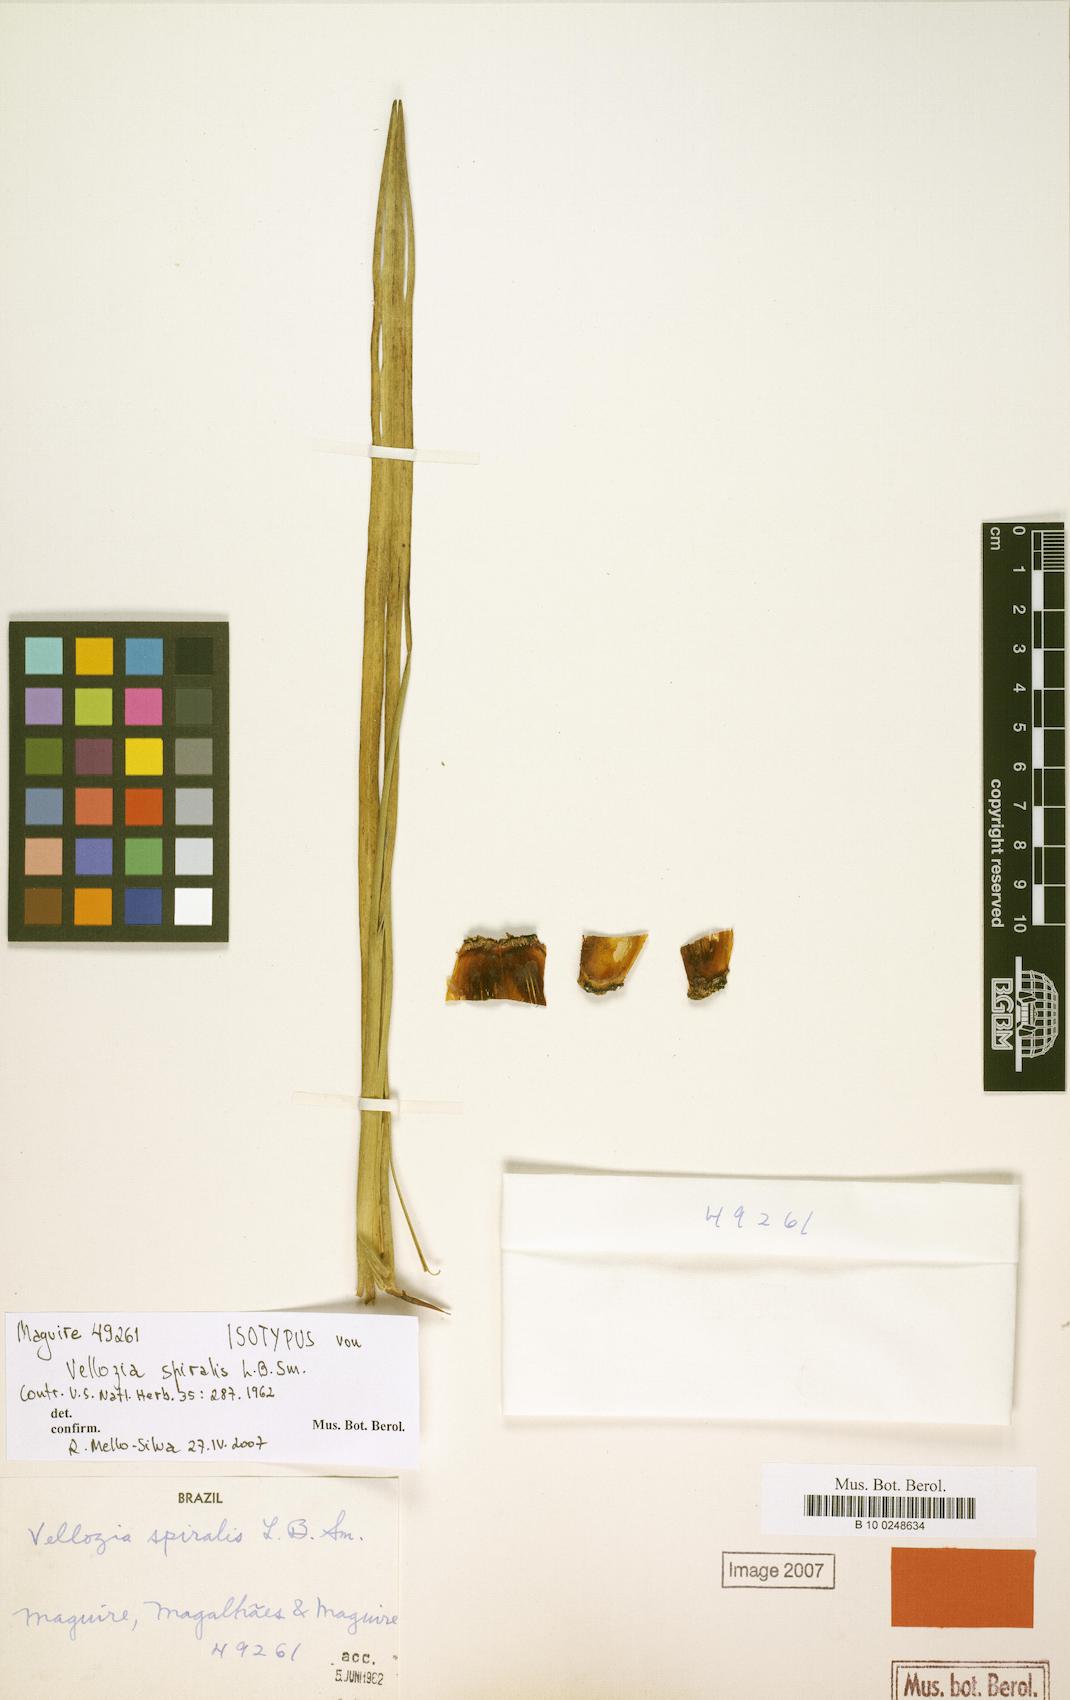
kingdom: Plantae
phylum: Tracheophyta
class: Liliopsida
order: Pandanales
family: Velloziaceae
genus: Vellozia
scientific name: Vellozia spiralis
